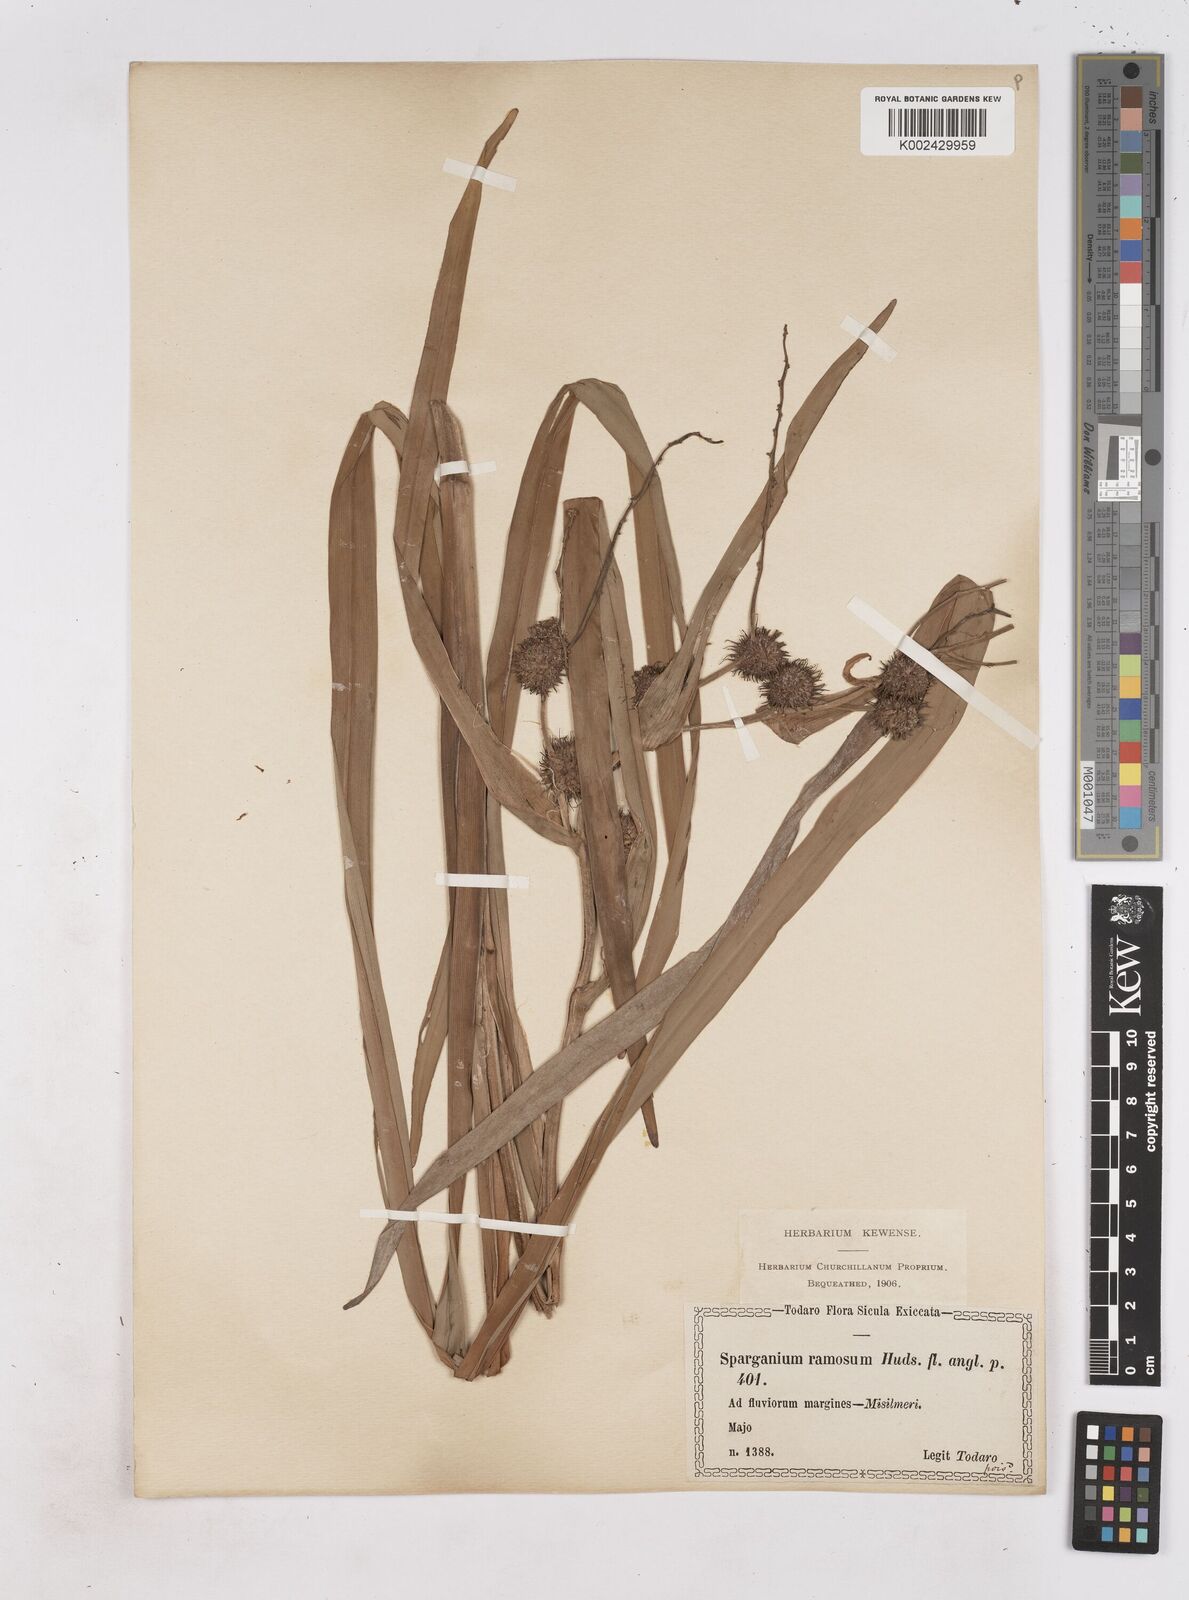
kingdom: Plantae
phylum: Tracheophyta
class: Liliopsida
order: Poales
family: Typhaceae
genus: Sparganium
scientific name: Sparganium erectum
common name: Branched bur-reed
